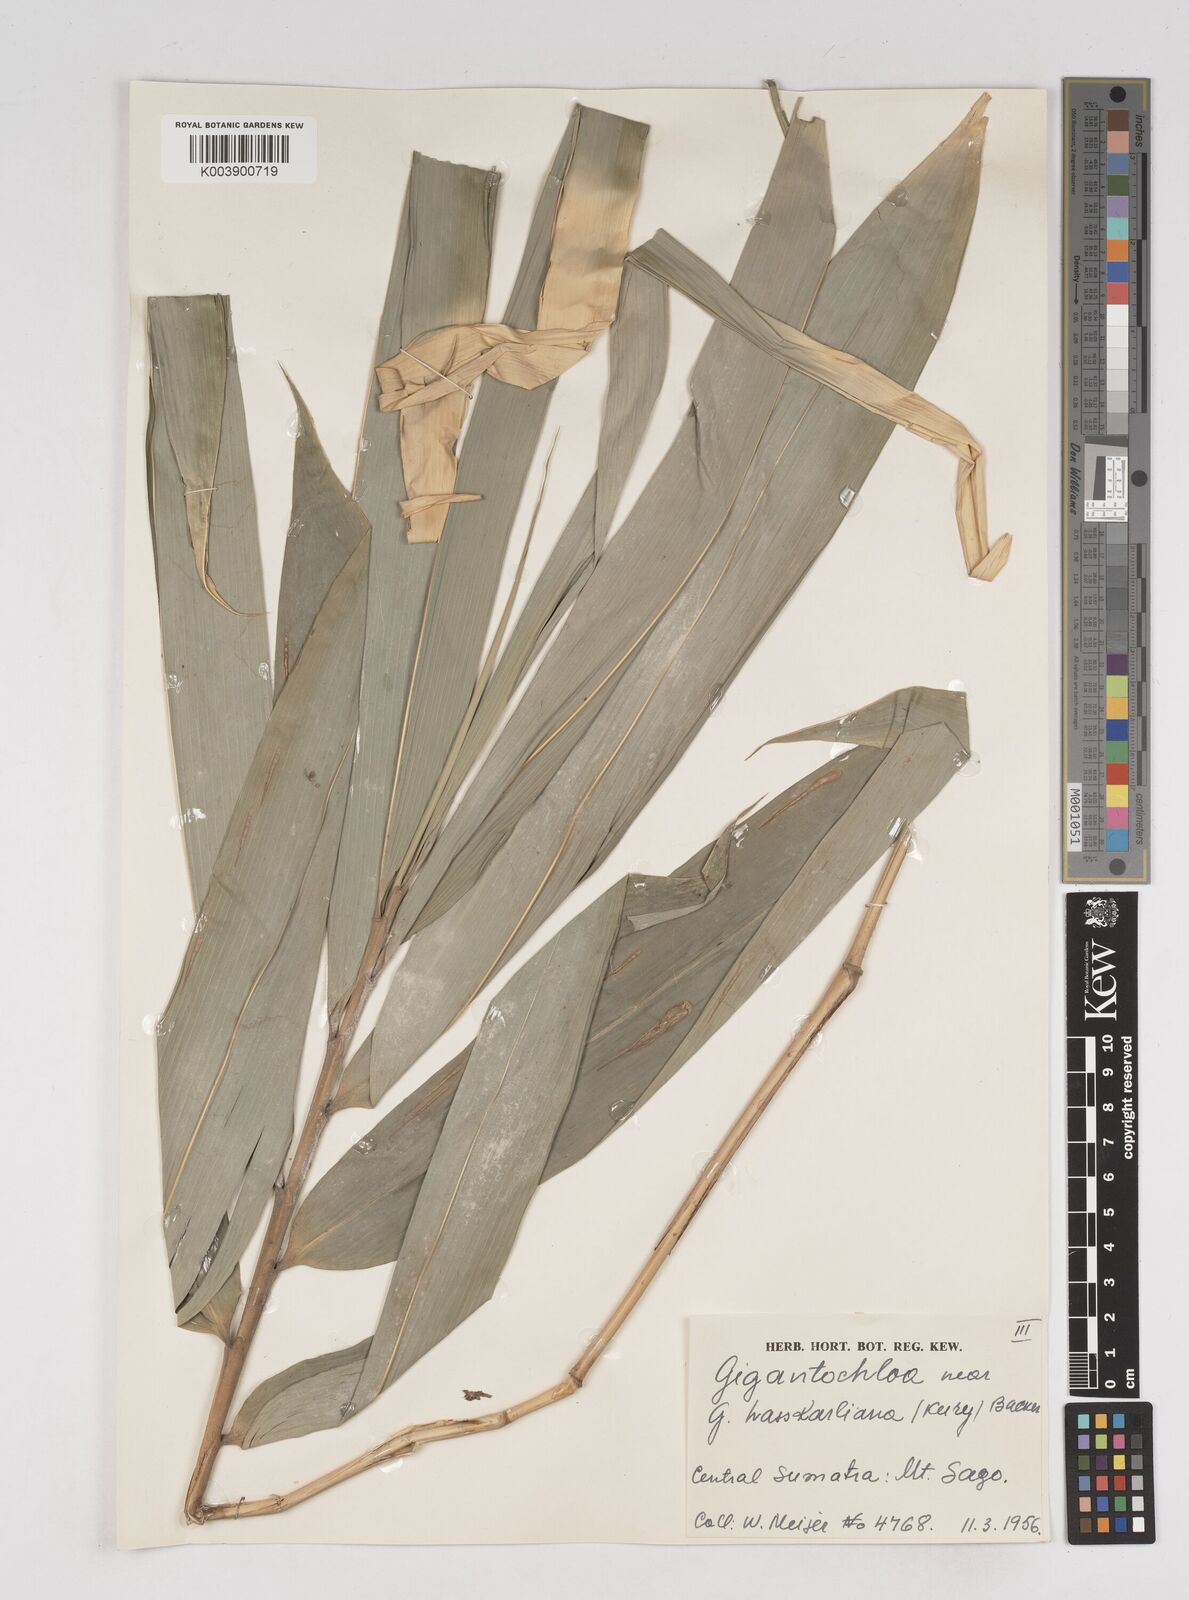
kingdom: Plantae
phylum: Tracheophyta
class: Liliopsida
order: Poales
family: Poaceae
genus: Gigantochloa
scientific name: Gigantochloa
